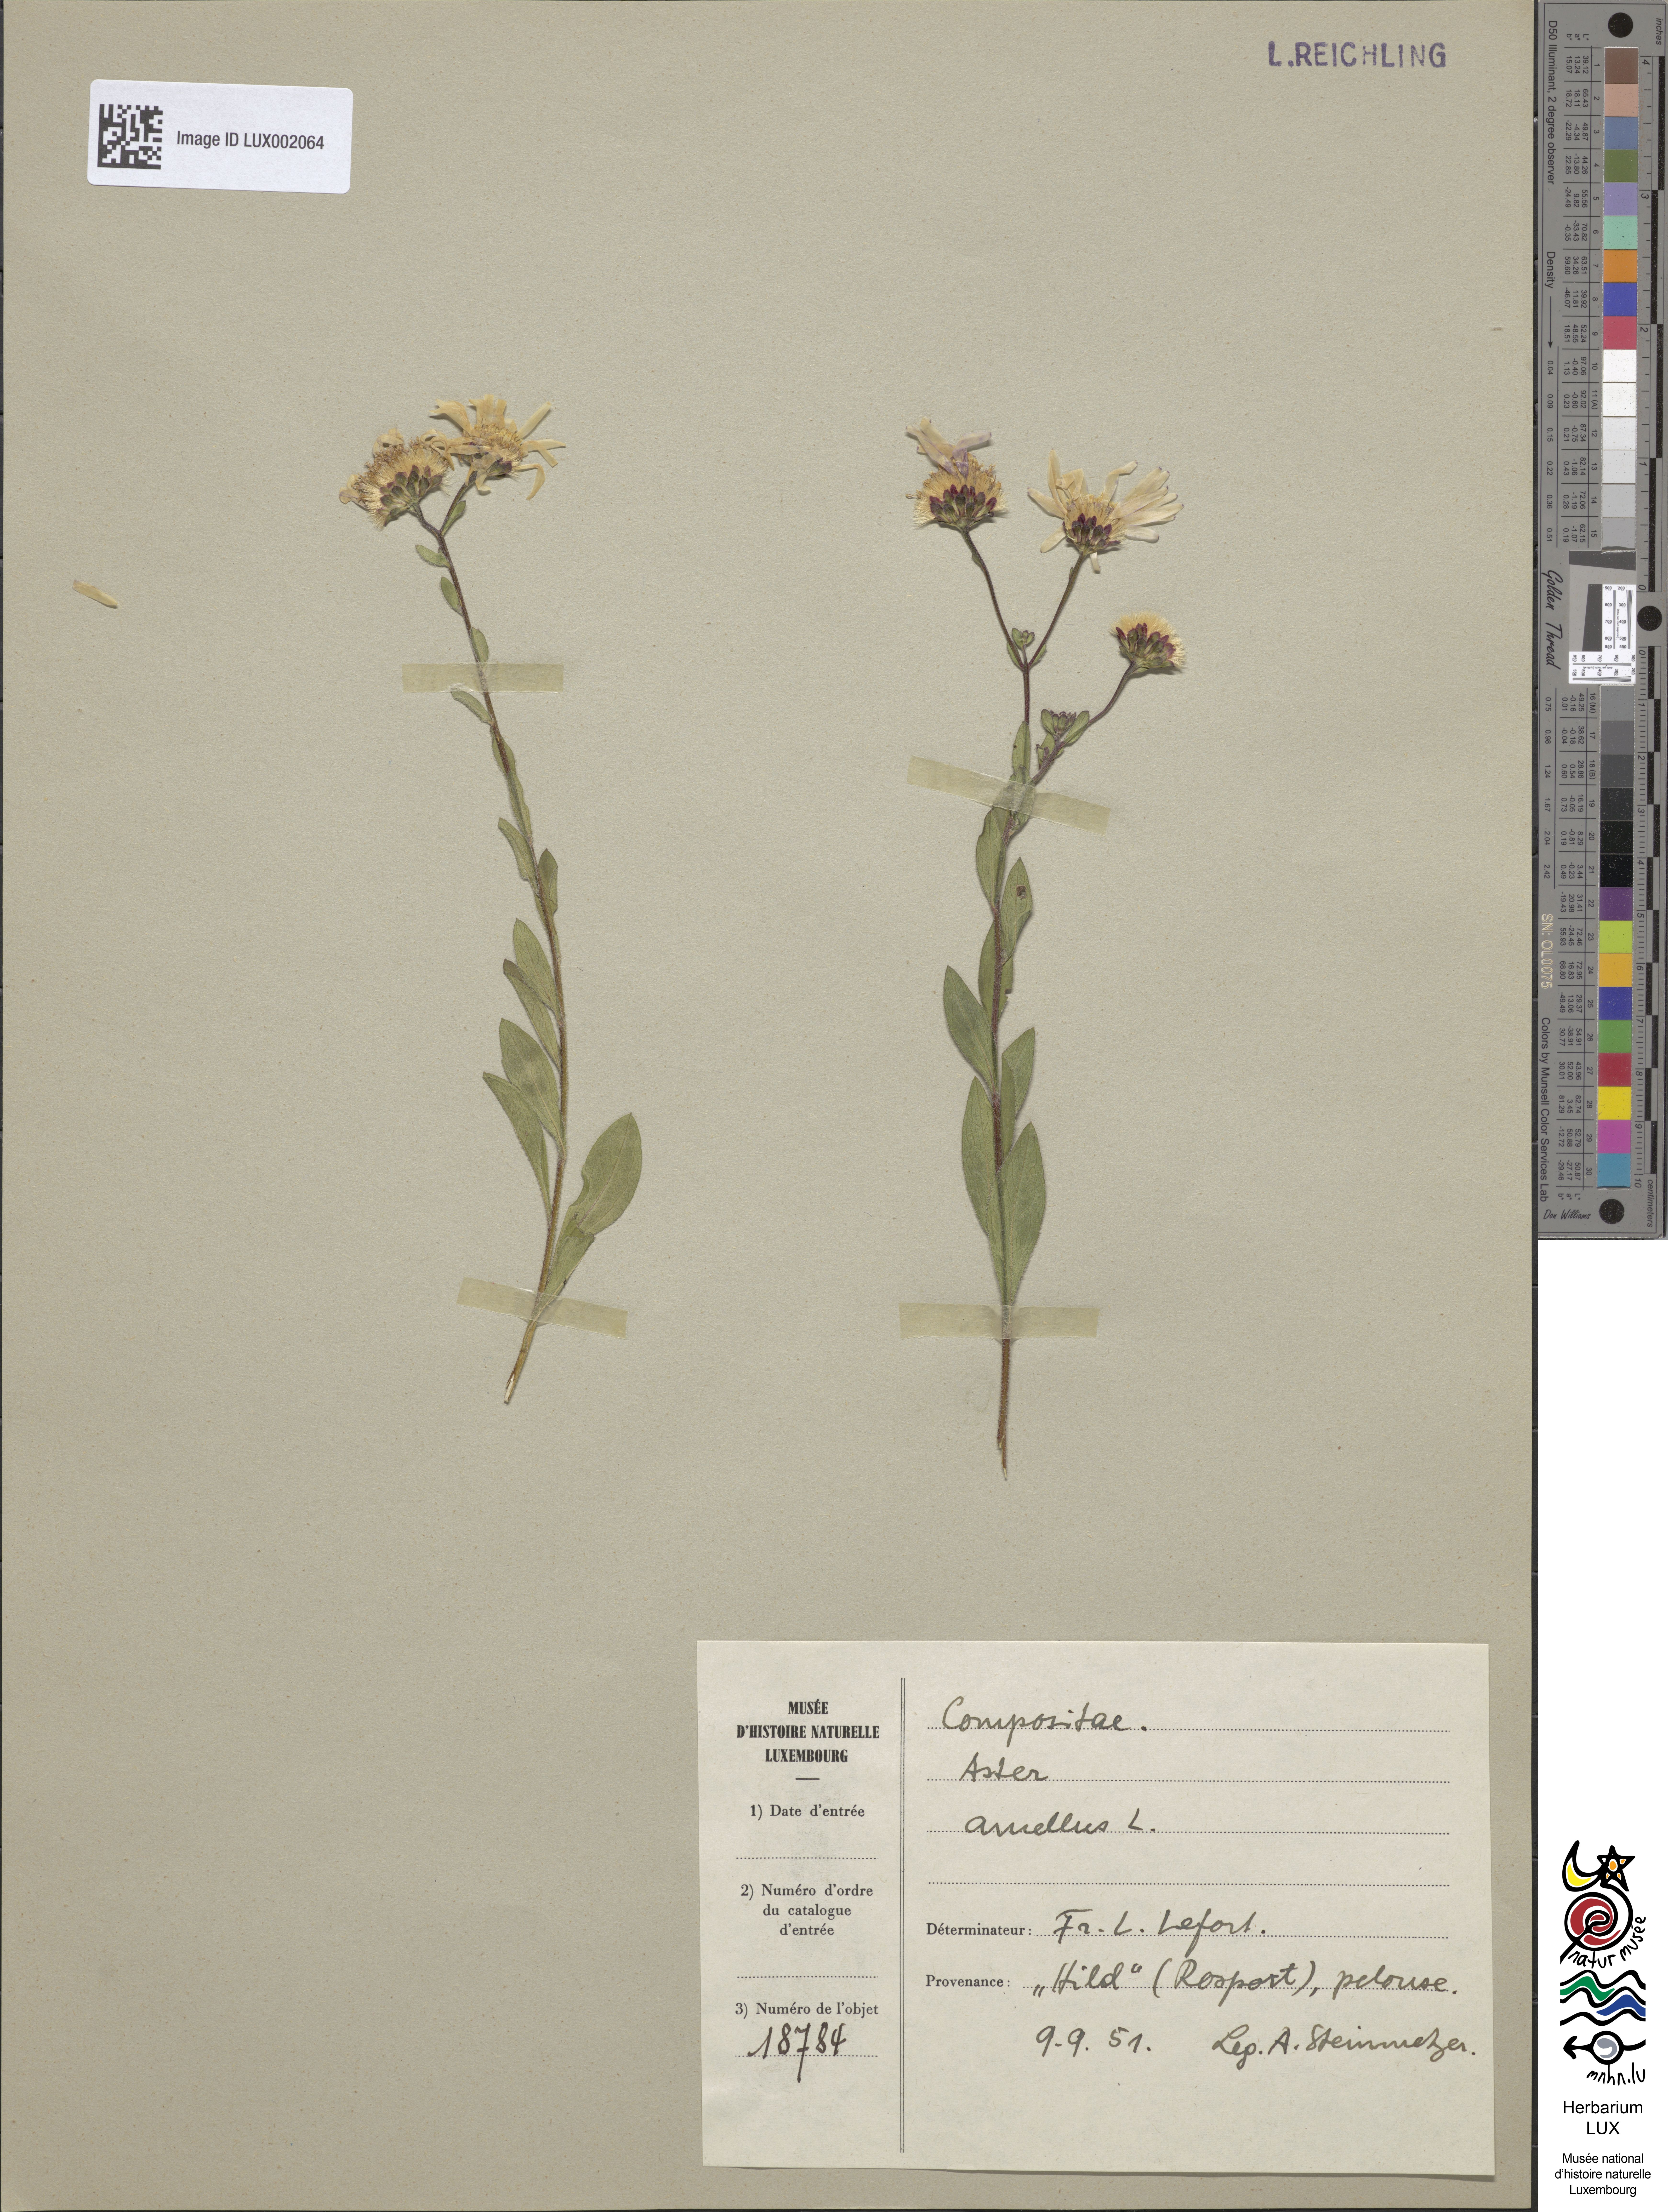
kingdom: Plantae
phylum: Tracheophyta
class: Magnoliopsida
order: Asterales
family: Asteraceae
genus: Aster
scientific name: Aster amellus
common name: European michaelmas daisy
